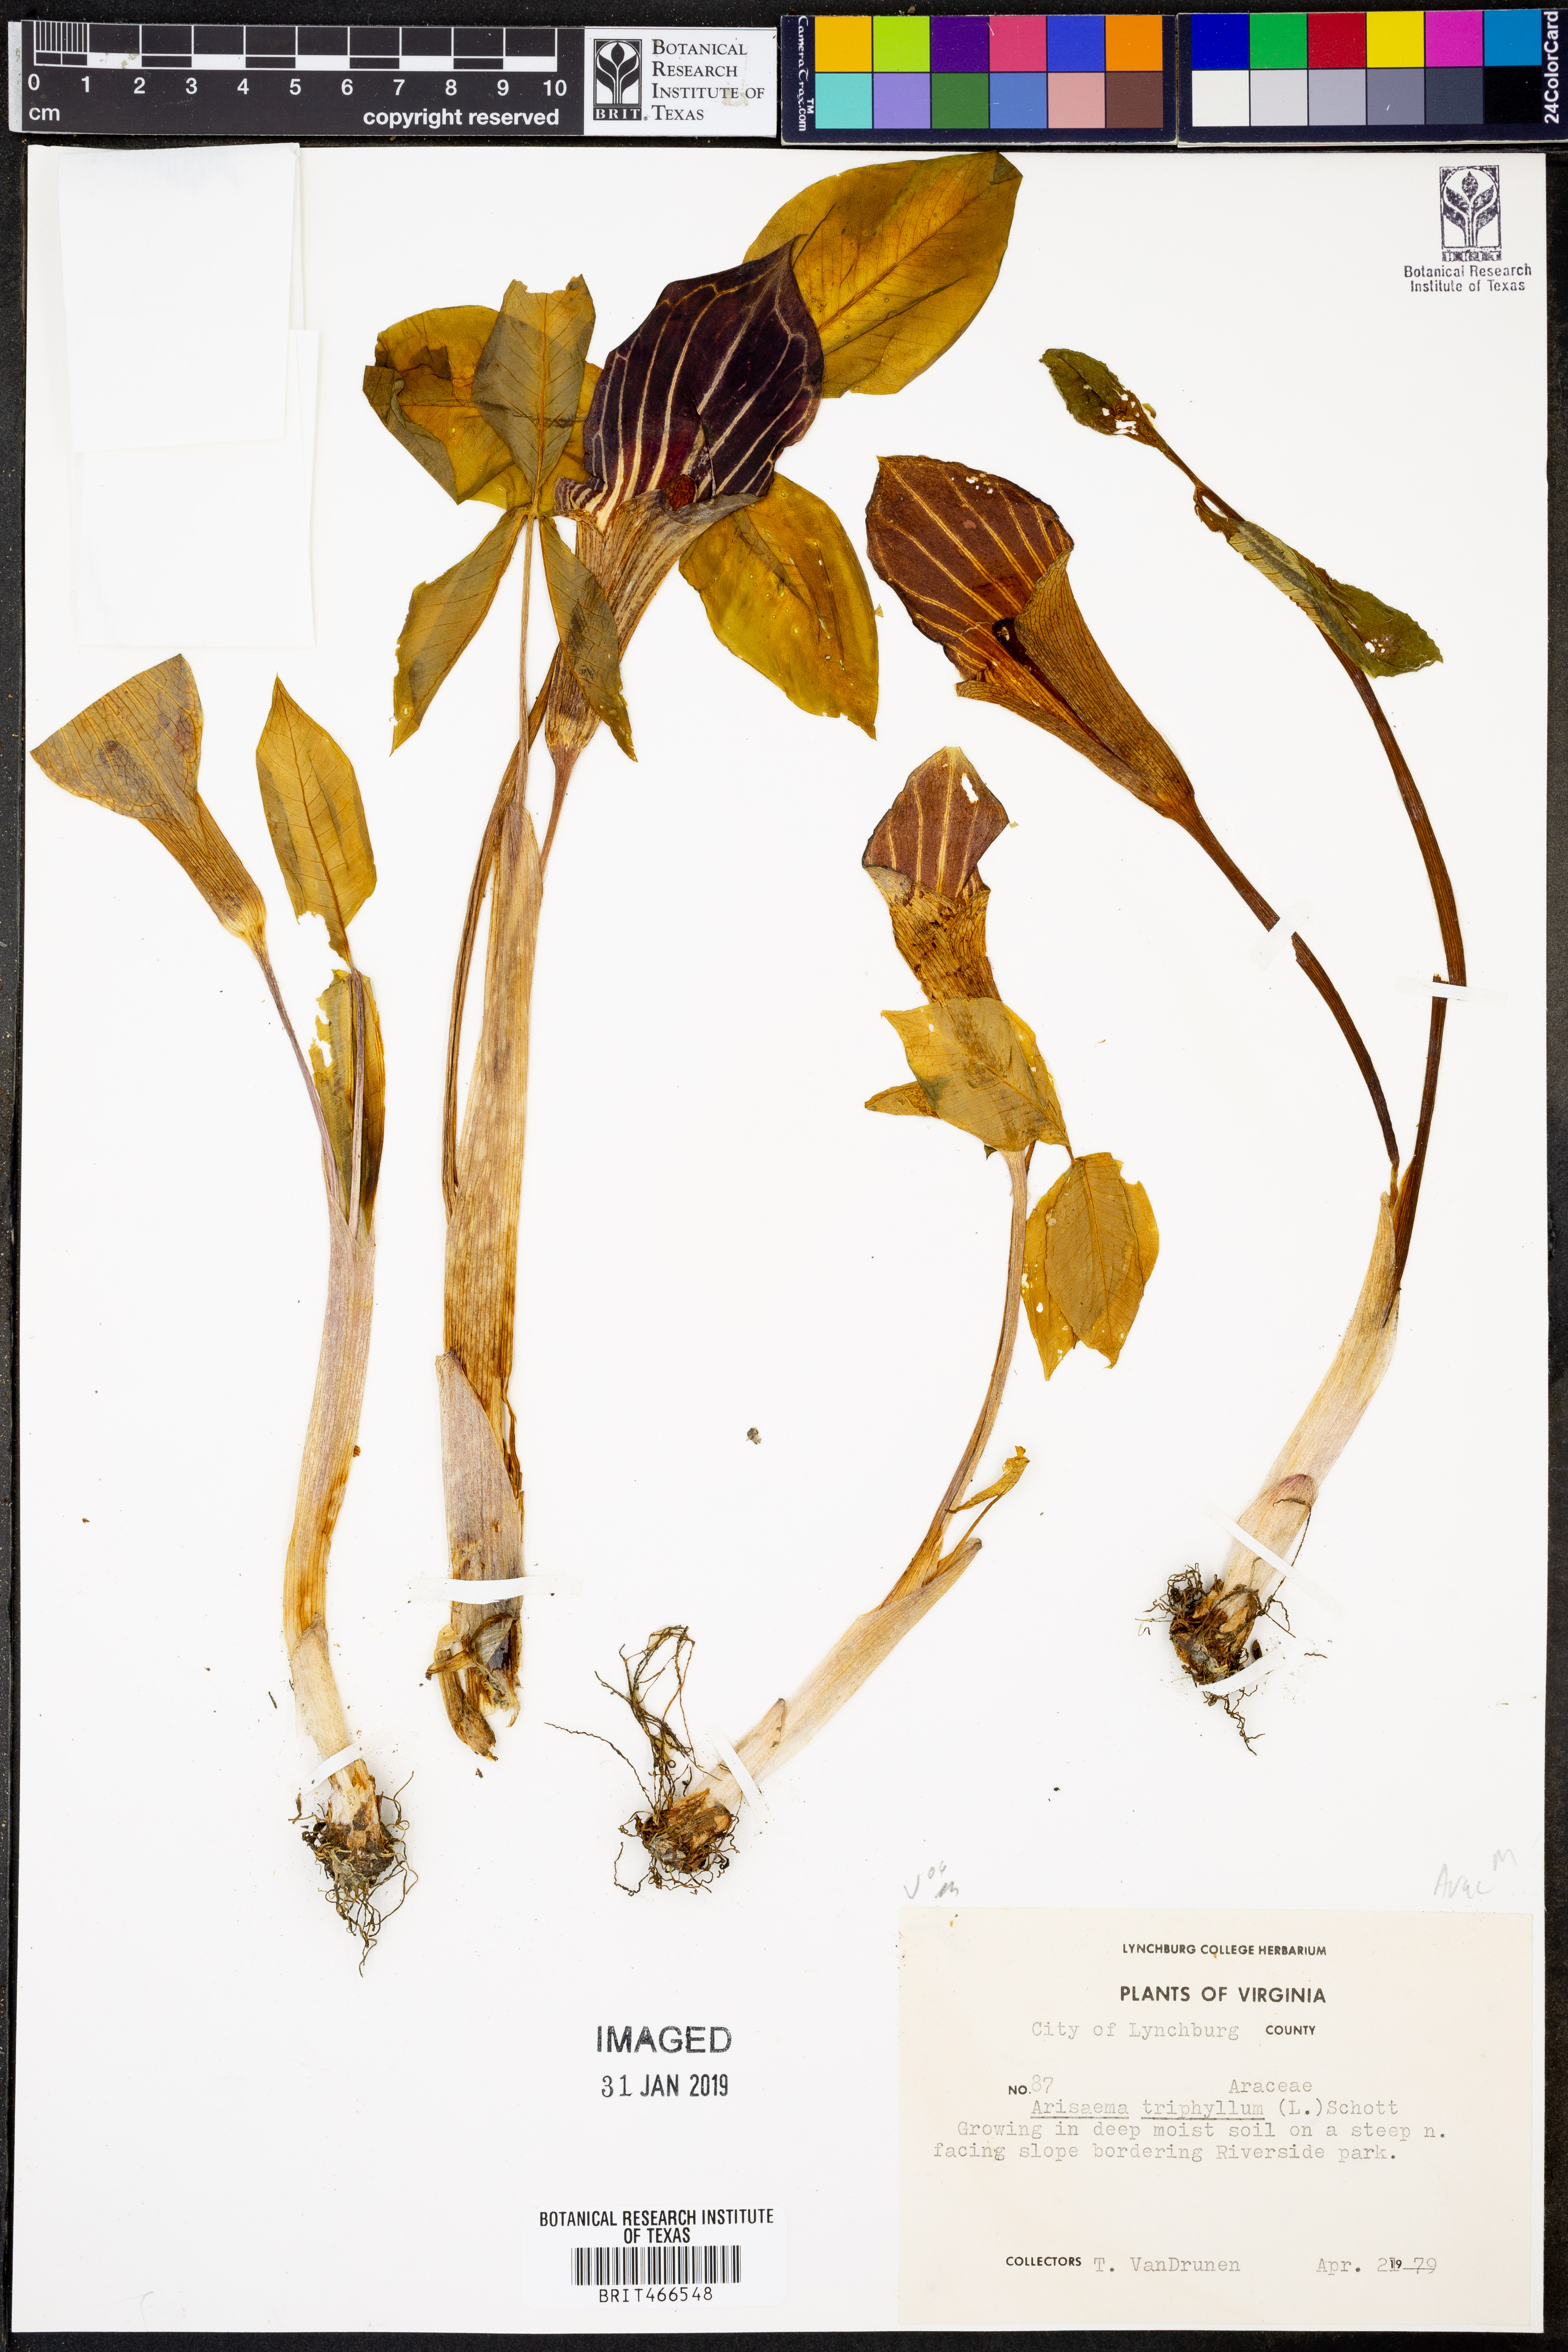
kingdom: Plantae
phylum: Tracheophyta
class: Liliopsida
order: Alismatales
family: Araceae
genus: Arisaema
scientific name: Arisaema triphyllum
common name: Jack-in-the-pulpit
